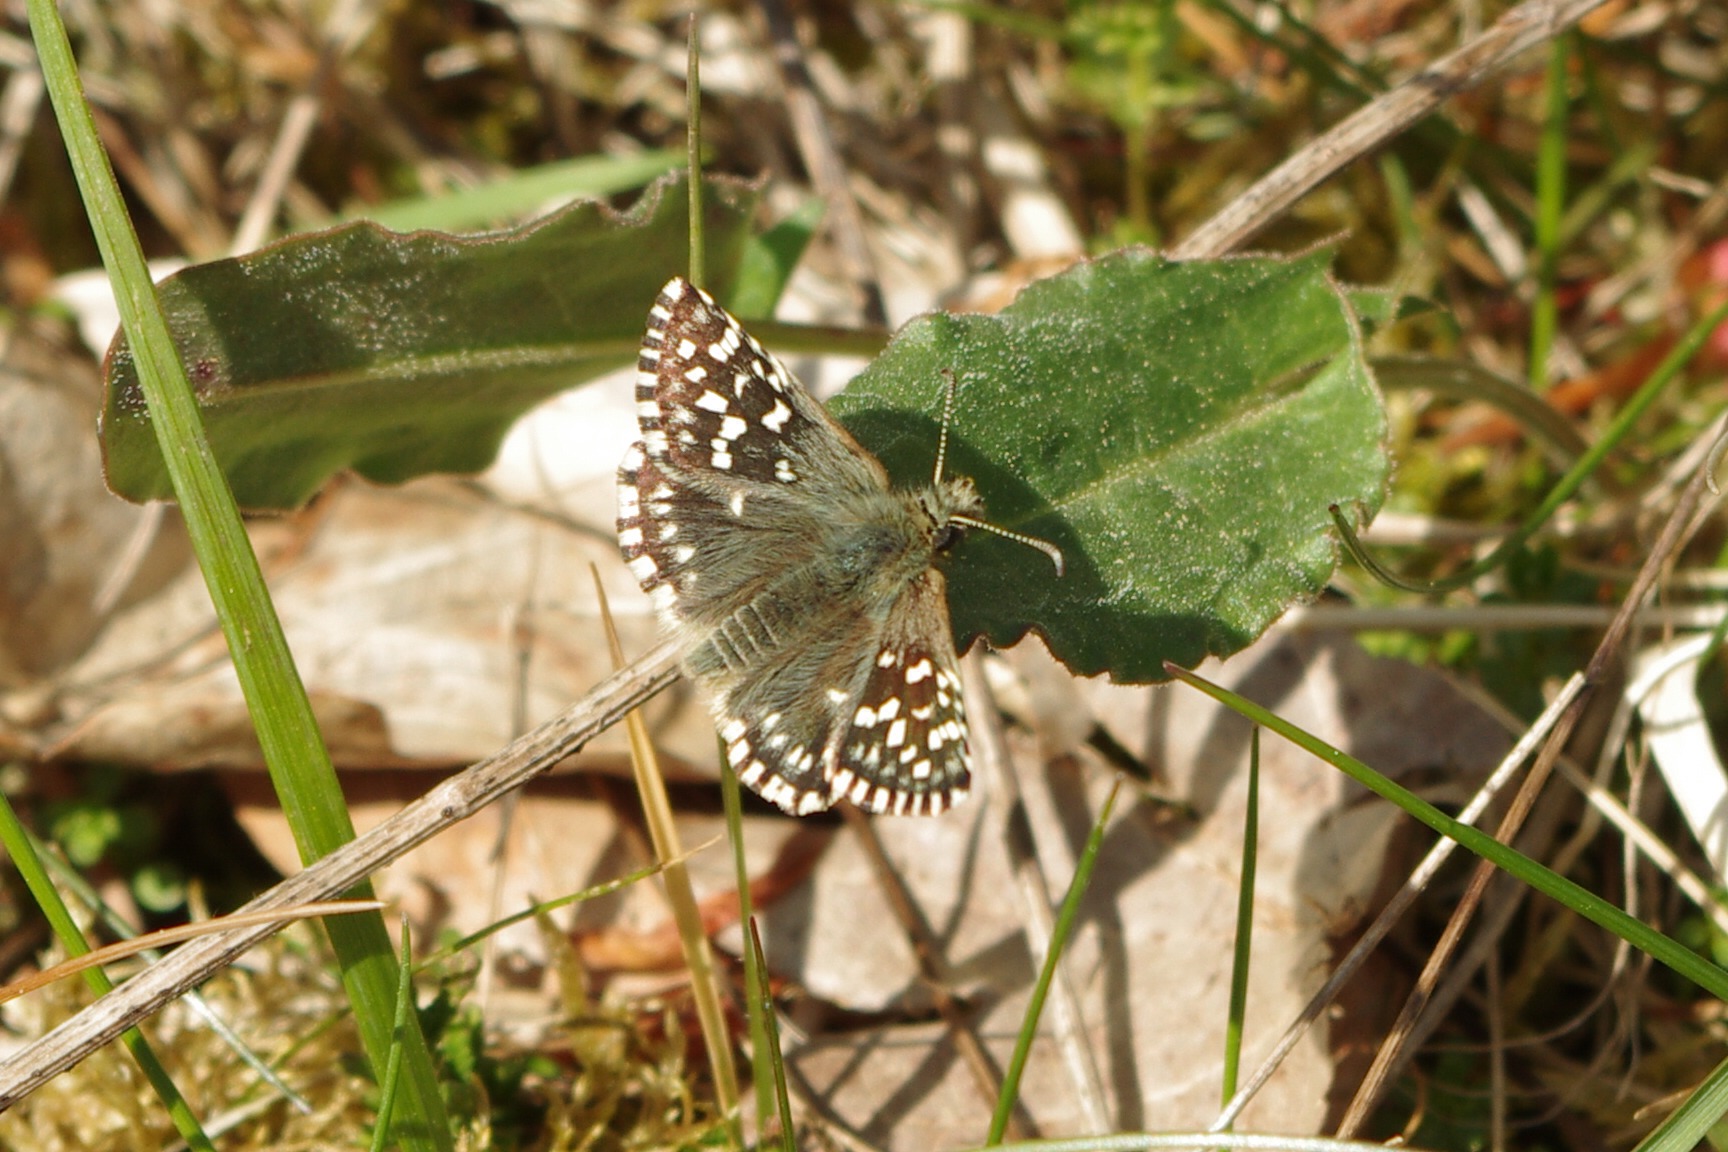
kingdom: Animalia
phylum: Arthropoda
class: Insecta
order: Lepidoptera
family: Hesperiidae
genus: Pyrgus
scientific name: Pyrgus malvae
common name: Spættet bredpande
